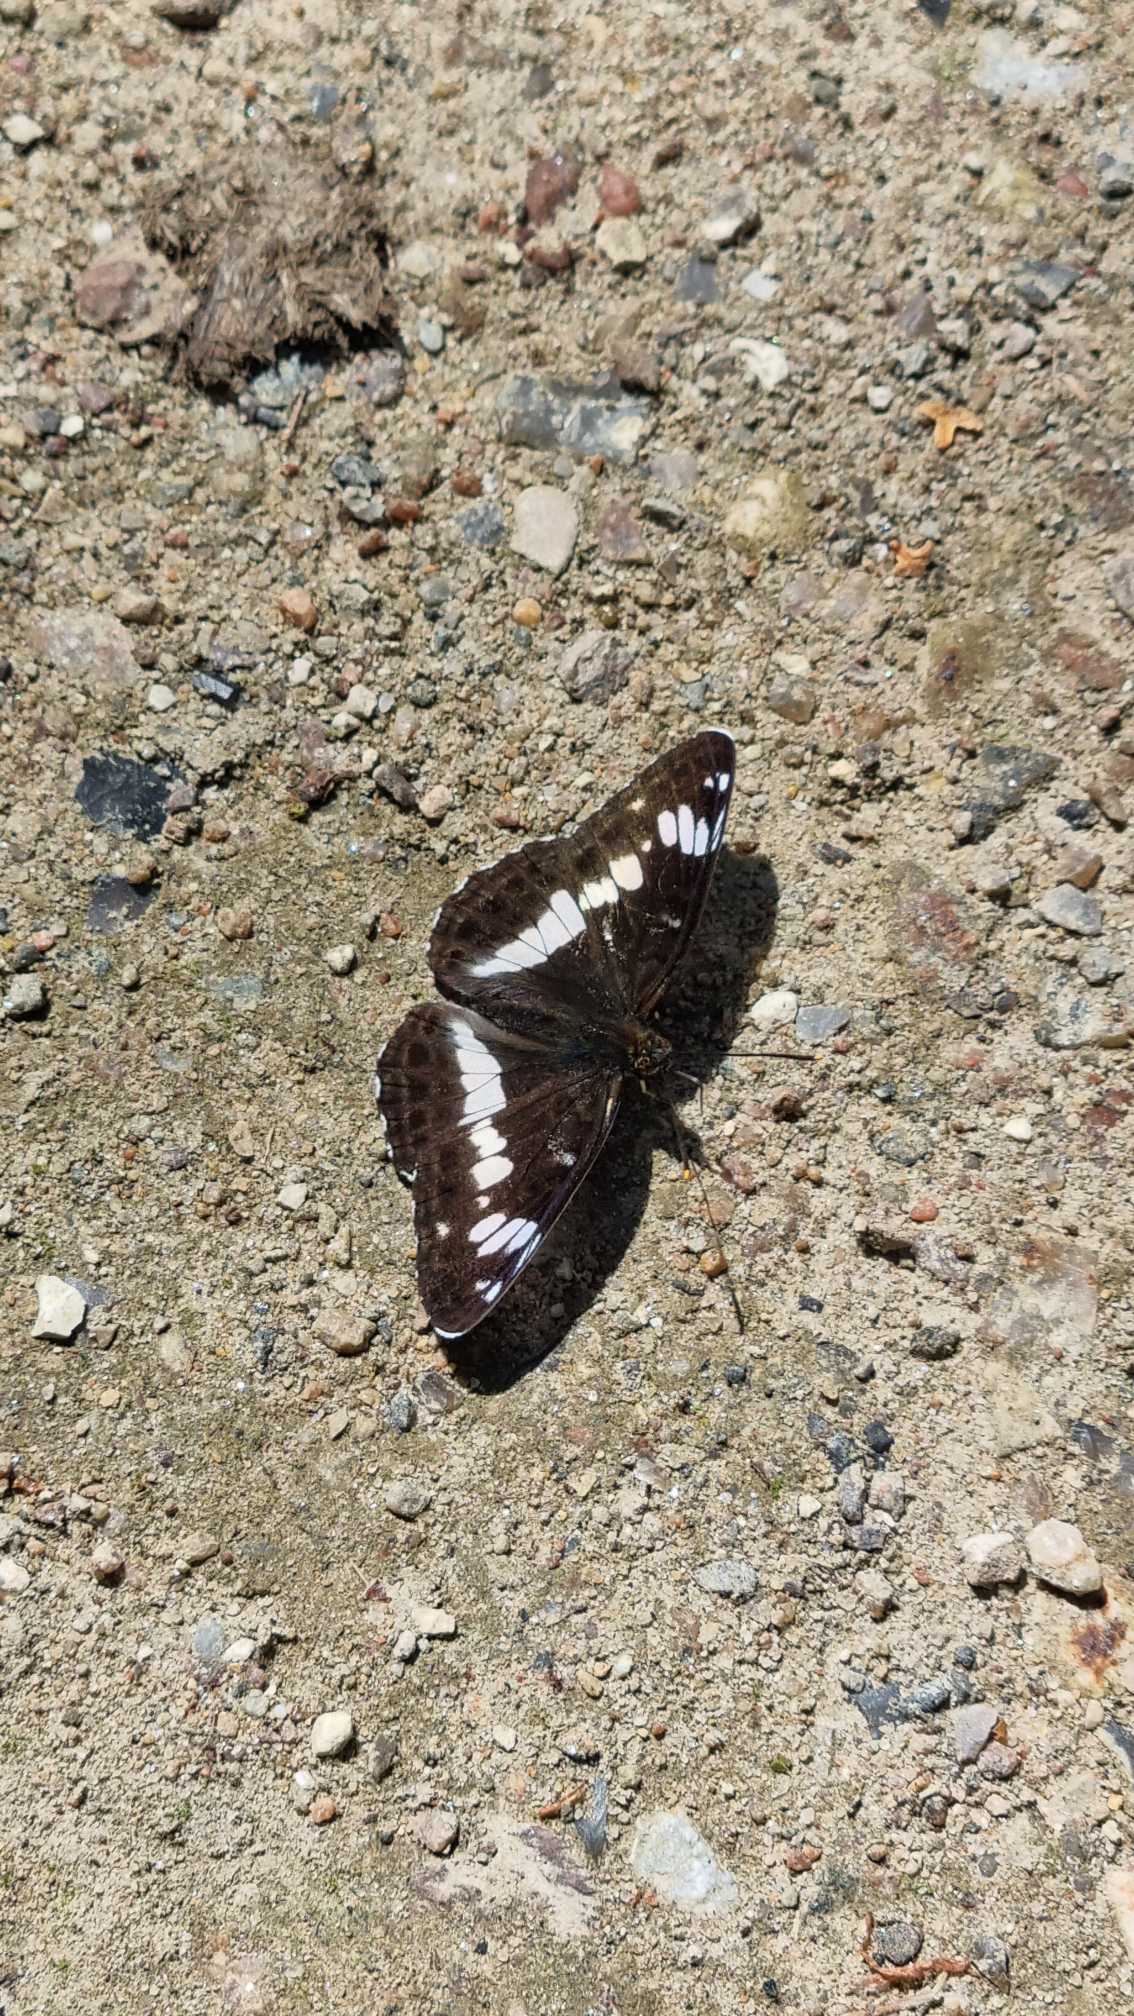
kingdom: Animalia
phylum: Arthropoda
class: Insecta
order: Lepidoptera
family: Nymphalidae
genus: Ladoga
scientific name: Ladoga camilla
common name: Hvid admiral
